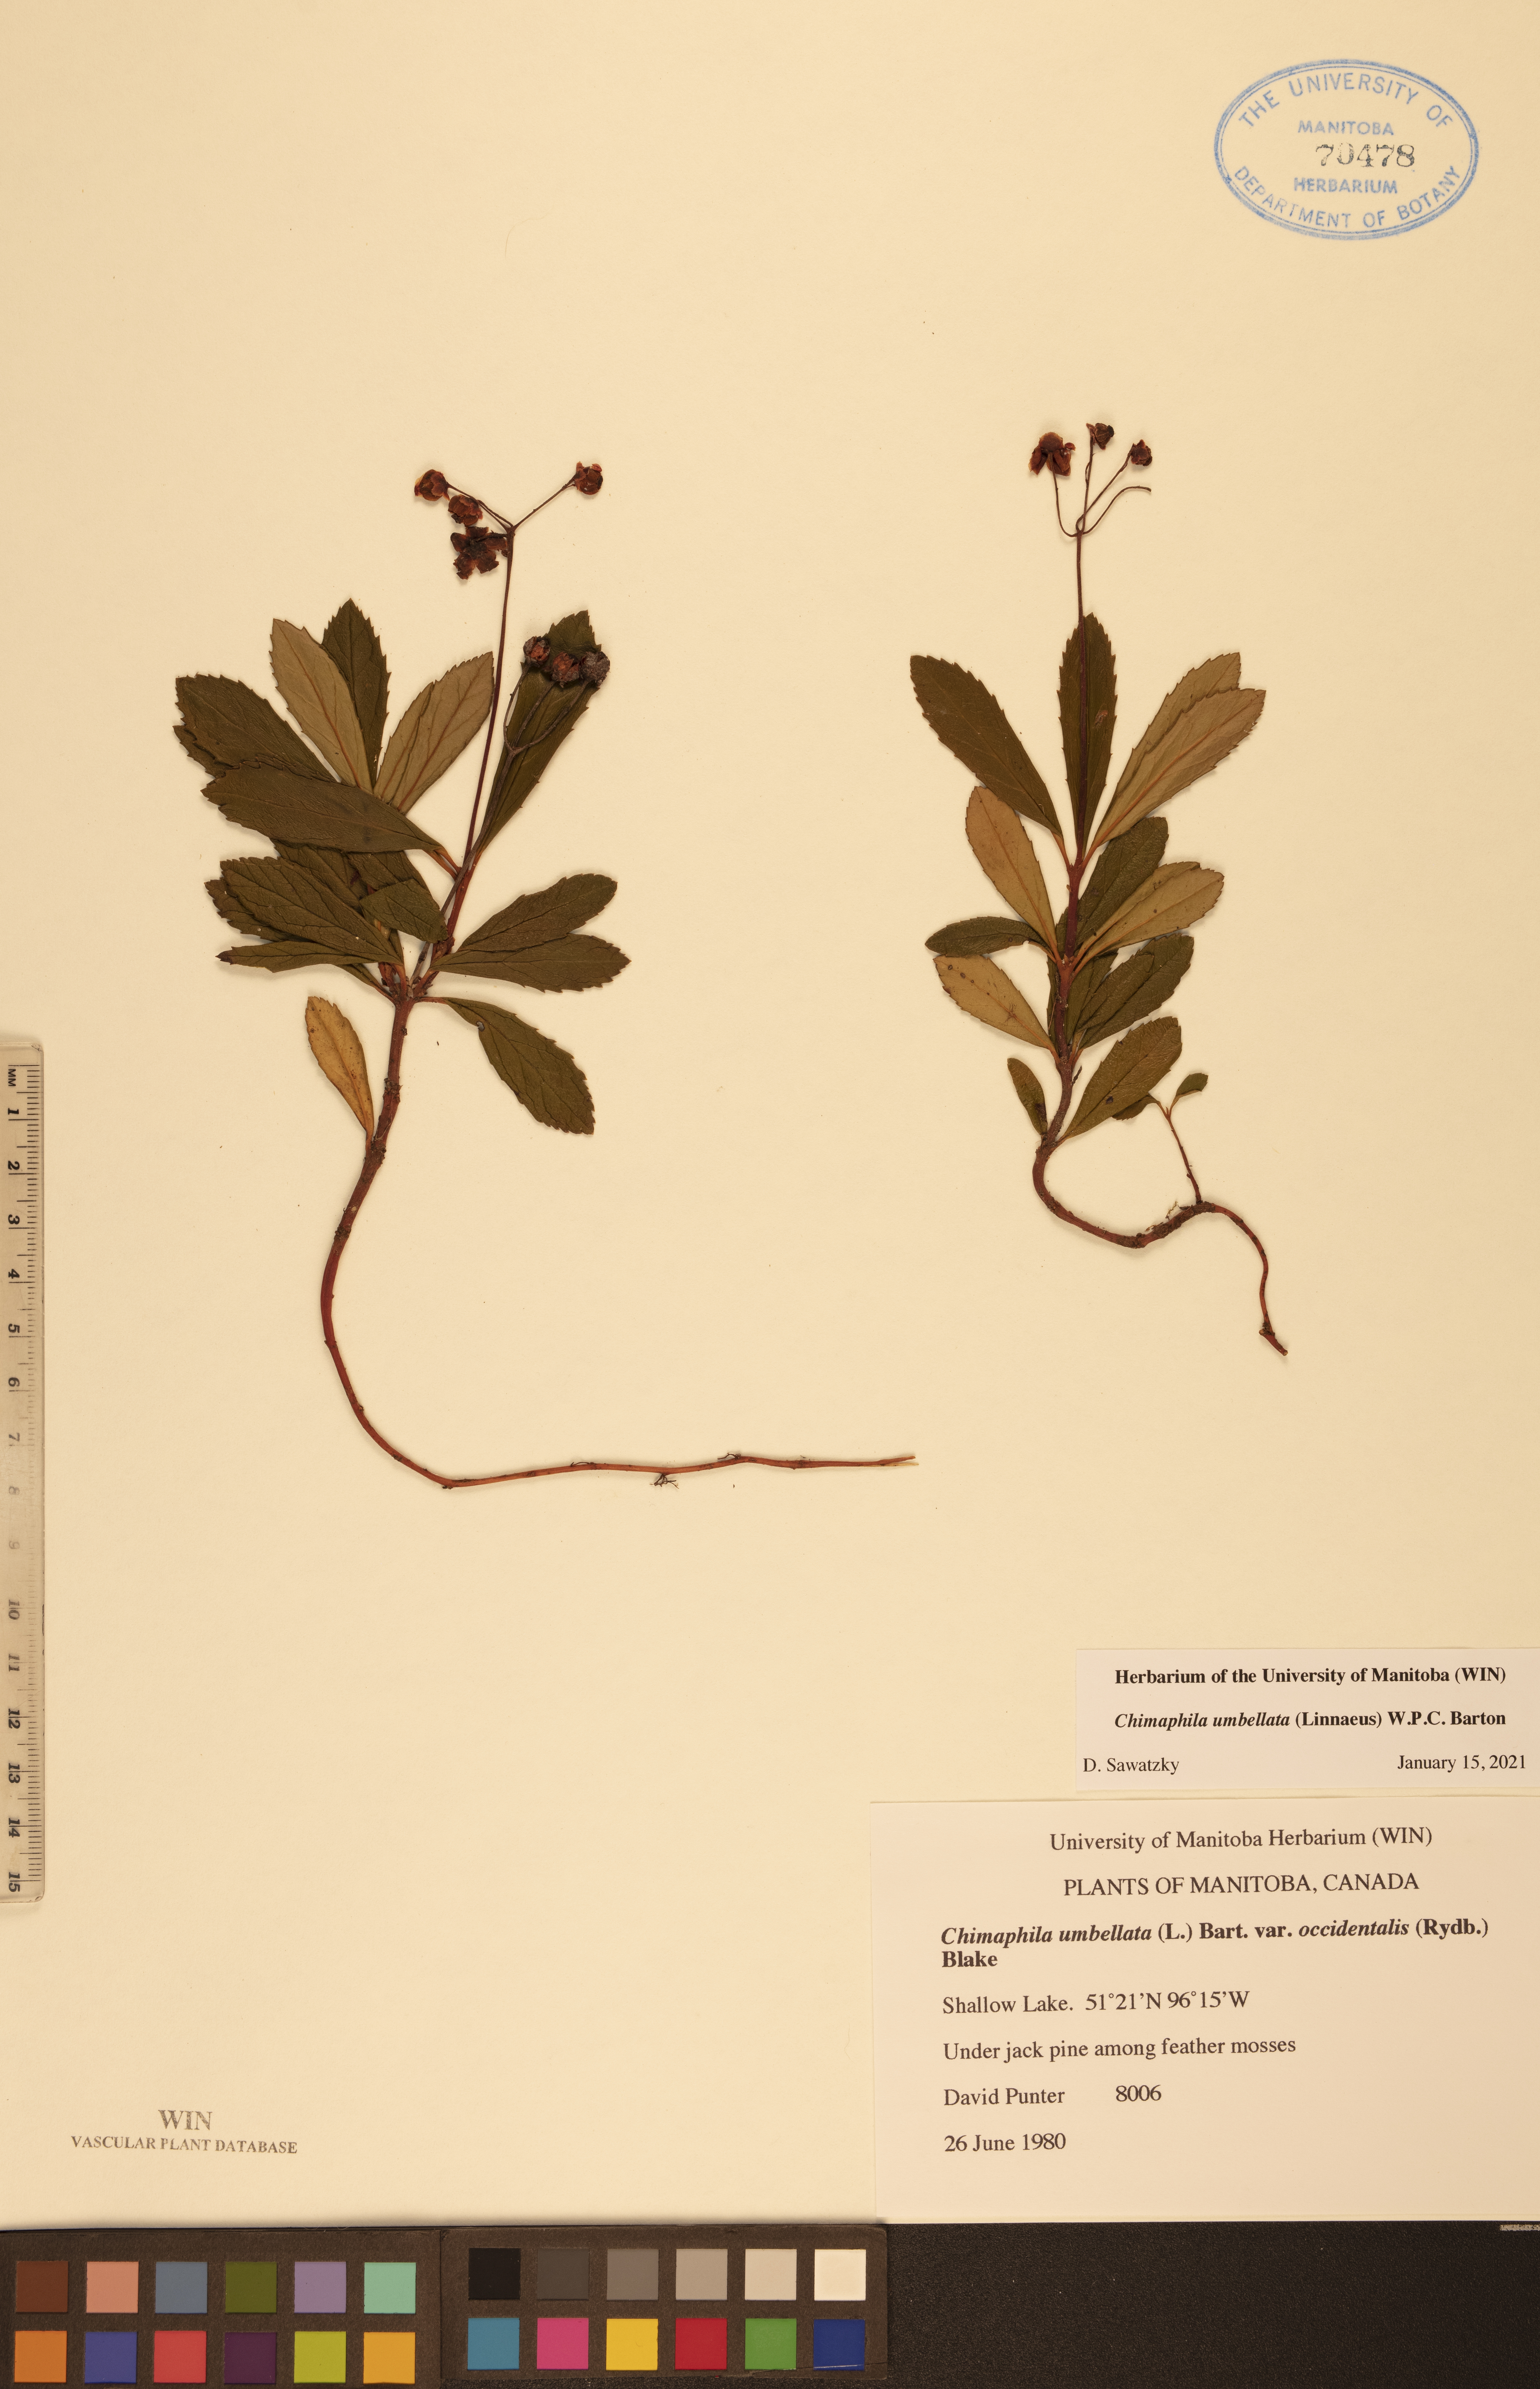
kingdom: Plantae
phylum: Tracheophyta
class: Magnoliopsida
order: Ericales
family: Ericaceae
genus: Chimaphila
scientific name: Chimaphila umbellata
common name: Pipsissewa
